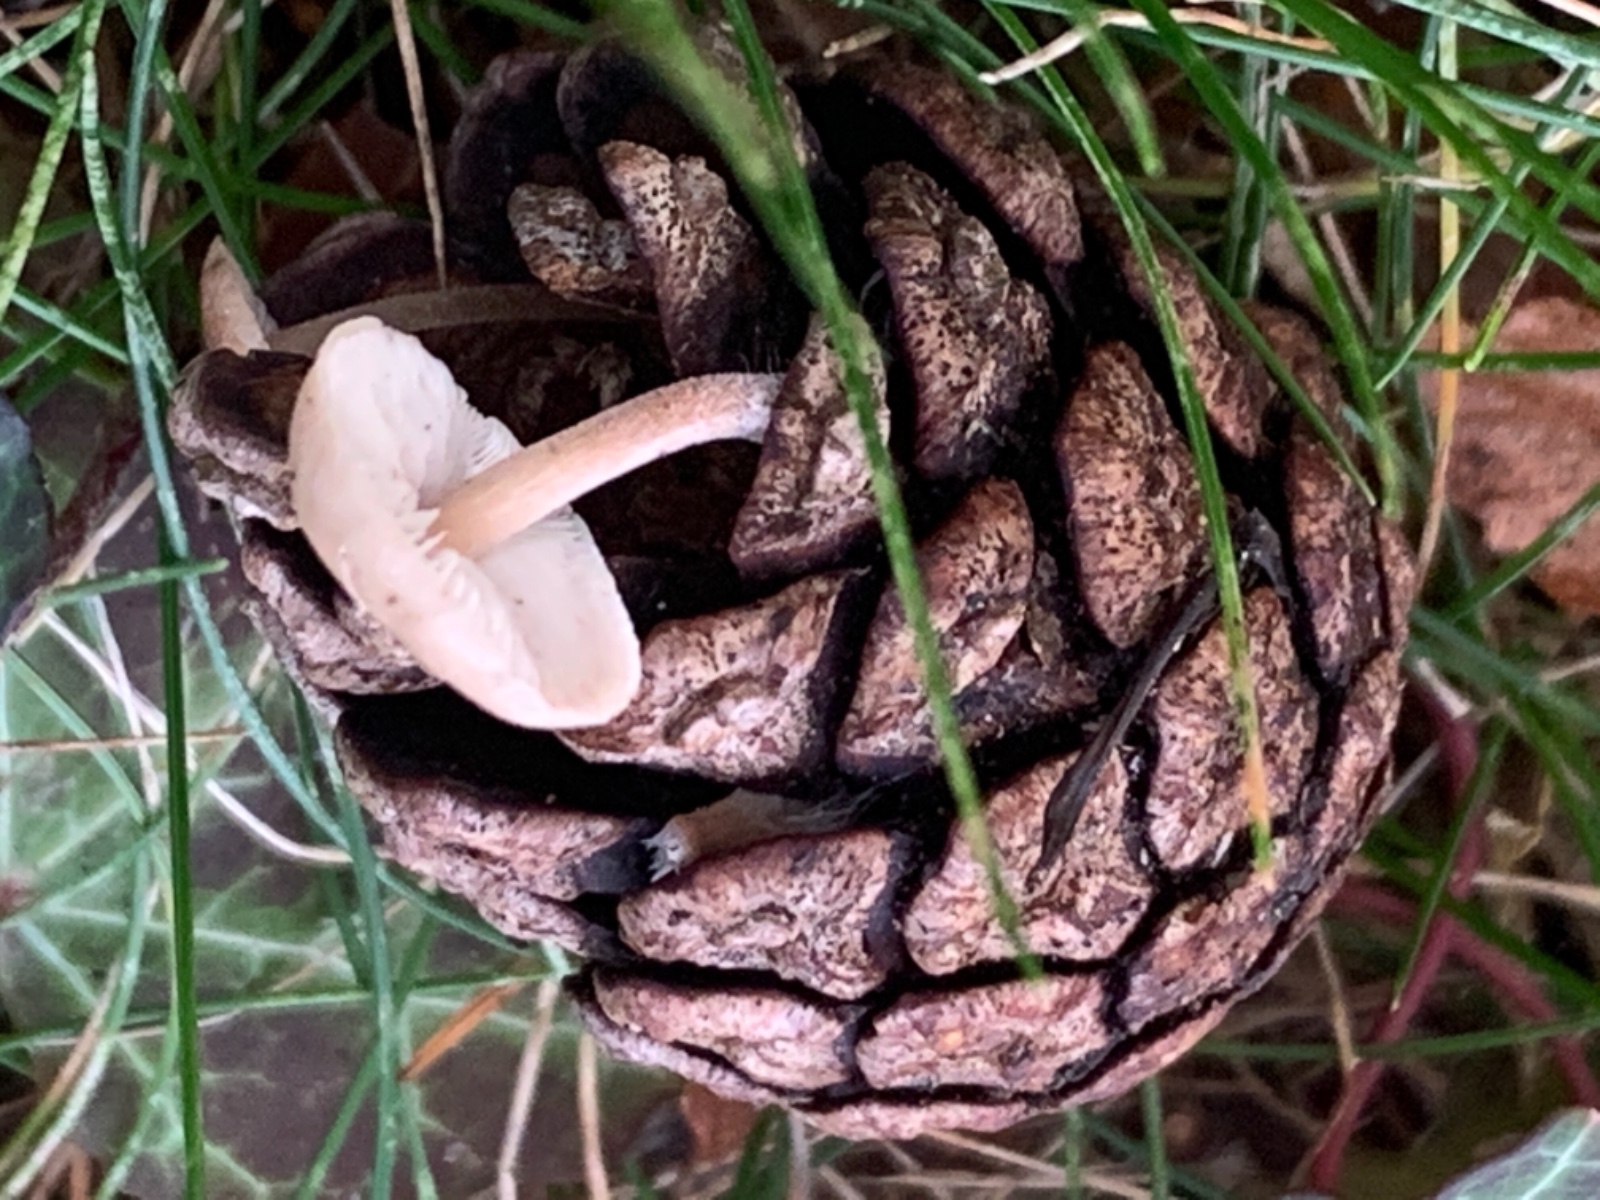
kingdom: Fungi
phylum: Basidiomycota
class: Agaricomycetes
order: Agaricales
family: Marasmiaceae
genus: Baeospora
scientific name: Baeospora myosura
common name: koglebruskhat
